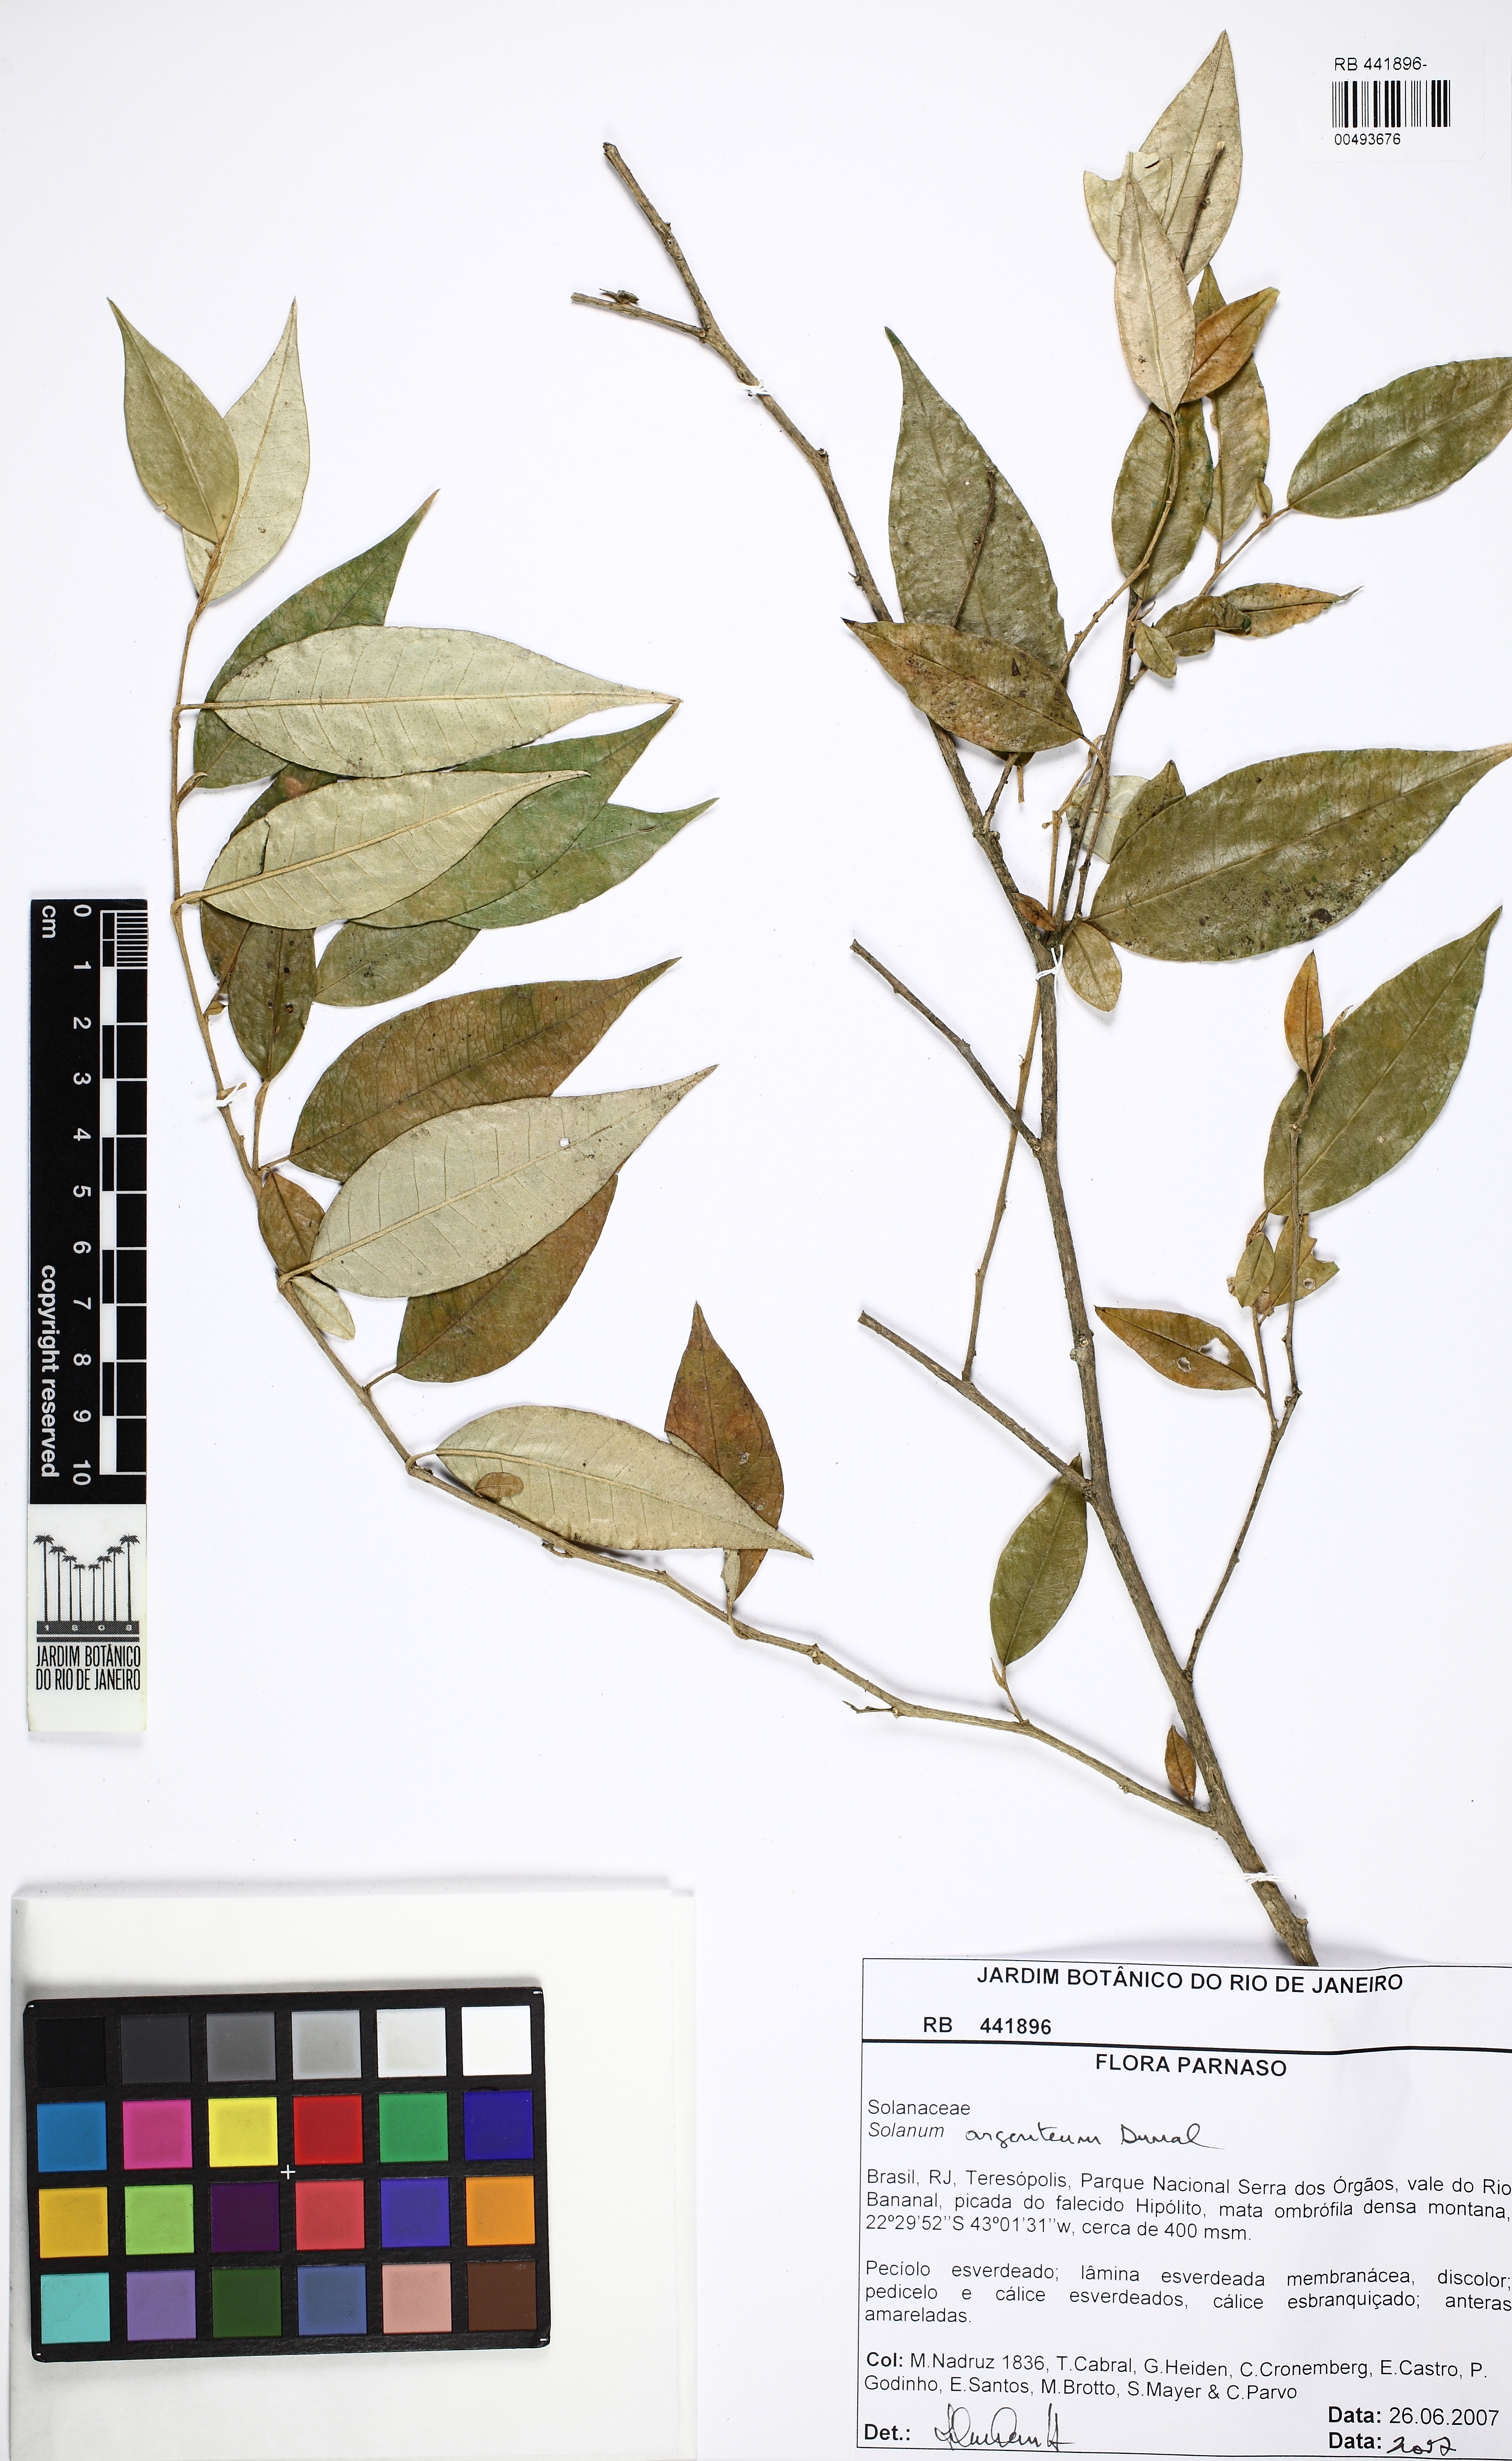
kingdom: Plantae
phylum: Tracheophyta
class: Magnoliopsida
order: Solanales
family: Solanaceae
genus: Solanum
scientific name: Solanum swartzianum
